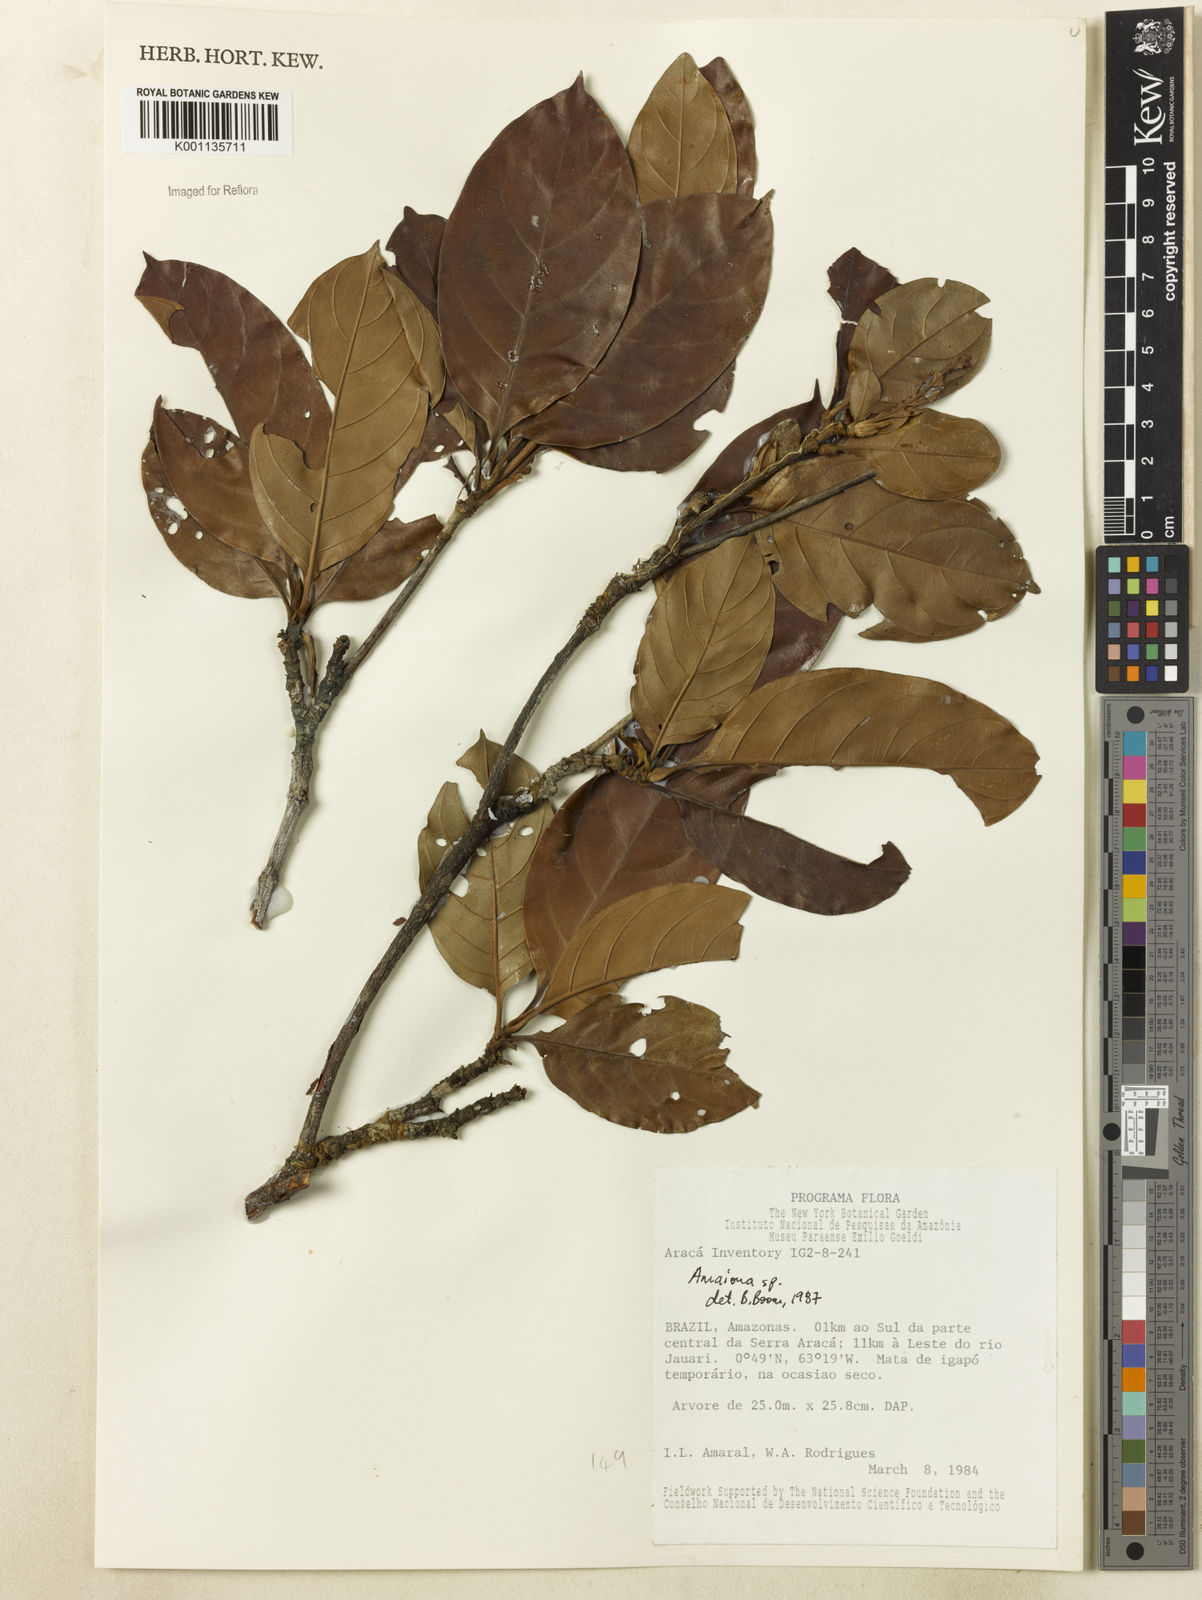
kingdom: Plantae
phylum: Tracheophyta
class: Magnoliopsida
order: Gentianales
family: Rubiaceae
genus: Amaioua
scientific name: Amaioua
